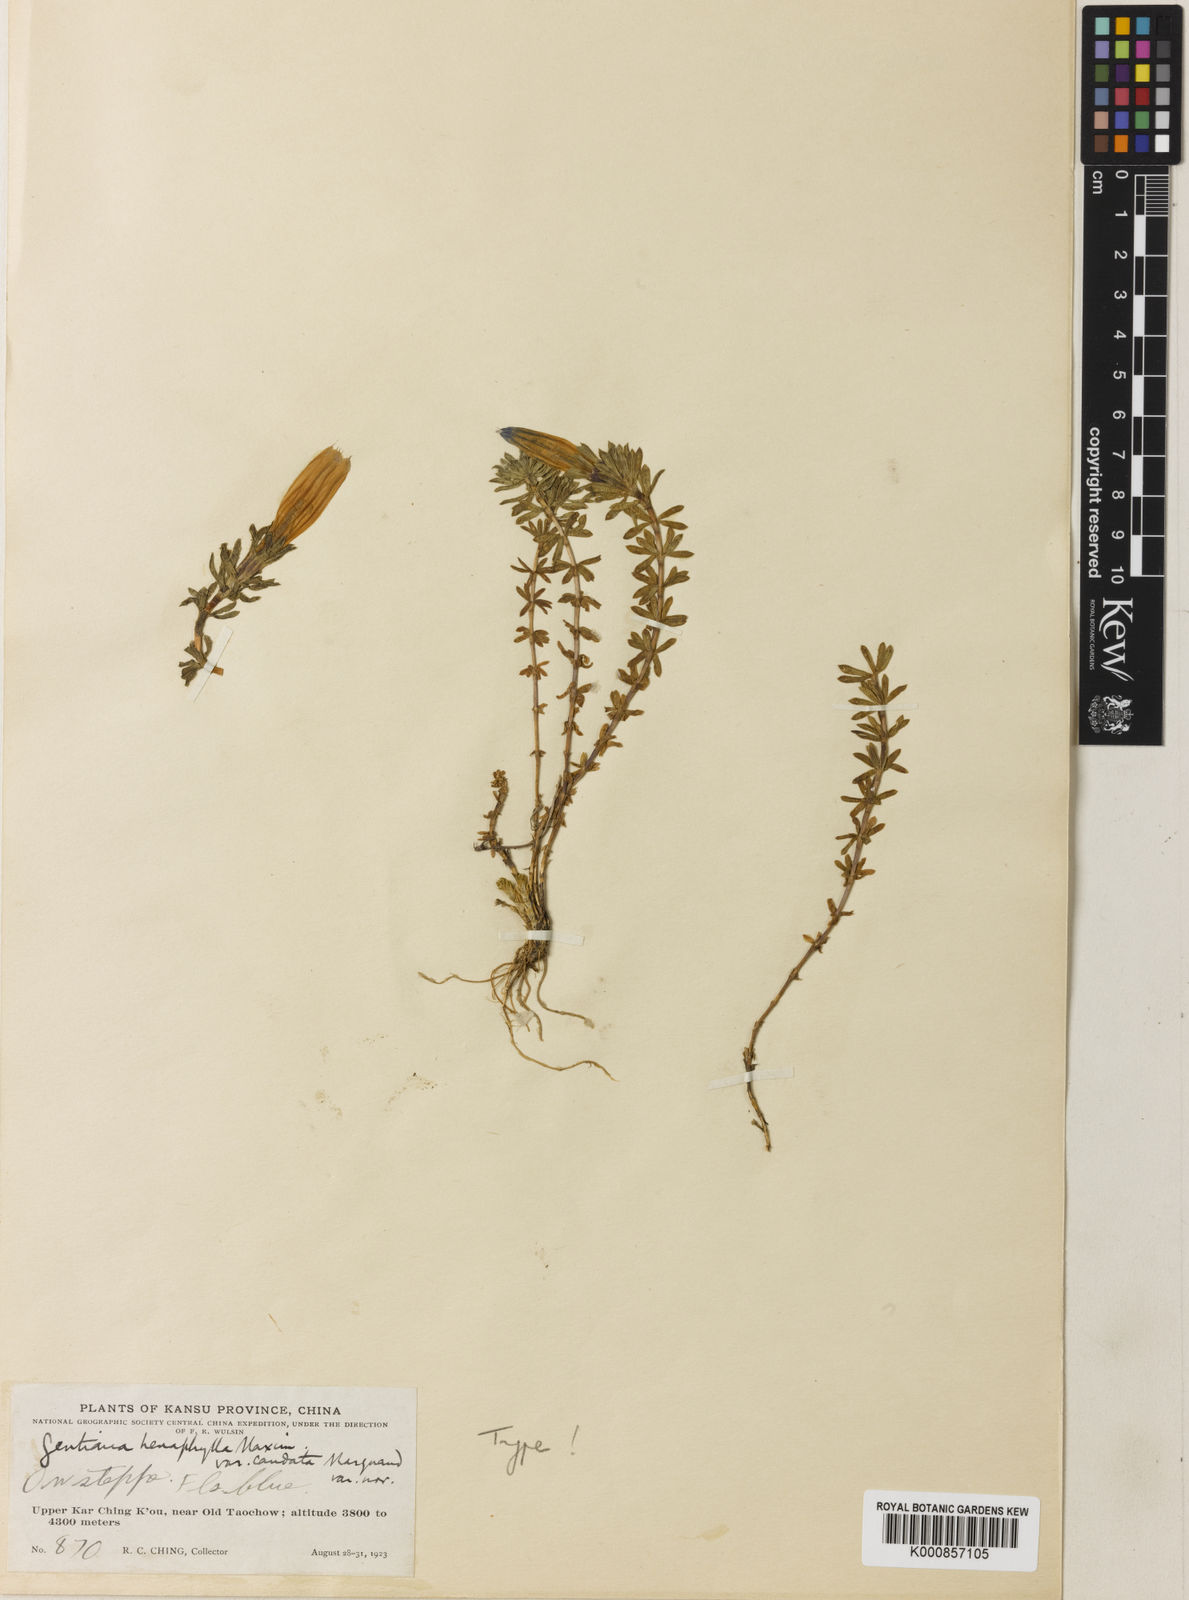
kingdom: Plantae
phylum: Tracheophyta
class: Magnoliopsida
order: Gentianales
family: Gentianaceae
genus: Gentiana
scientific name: Gentiana
